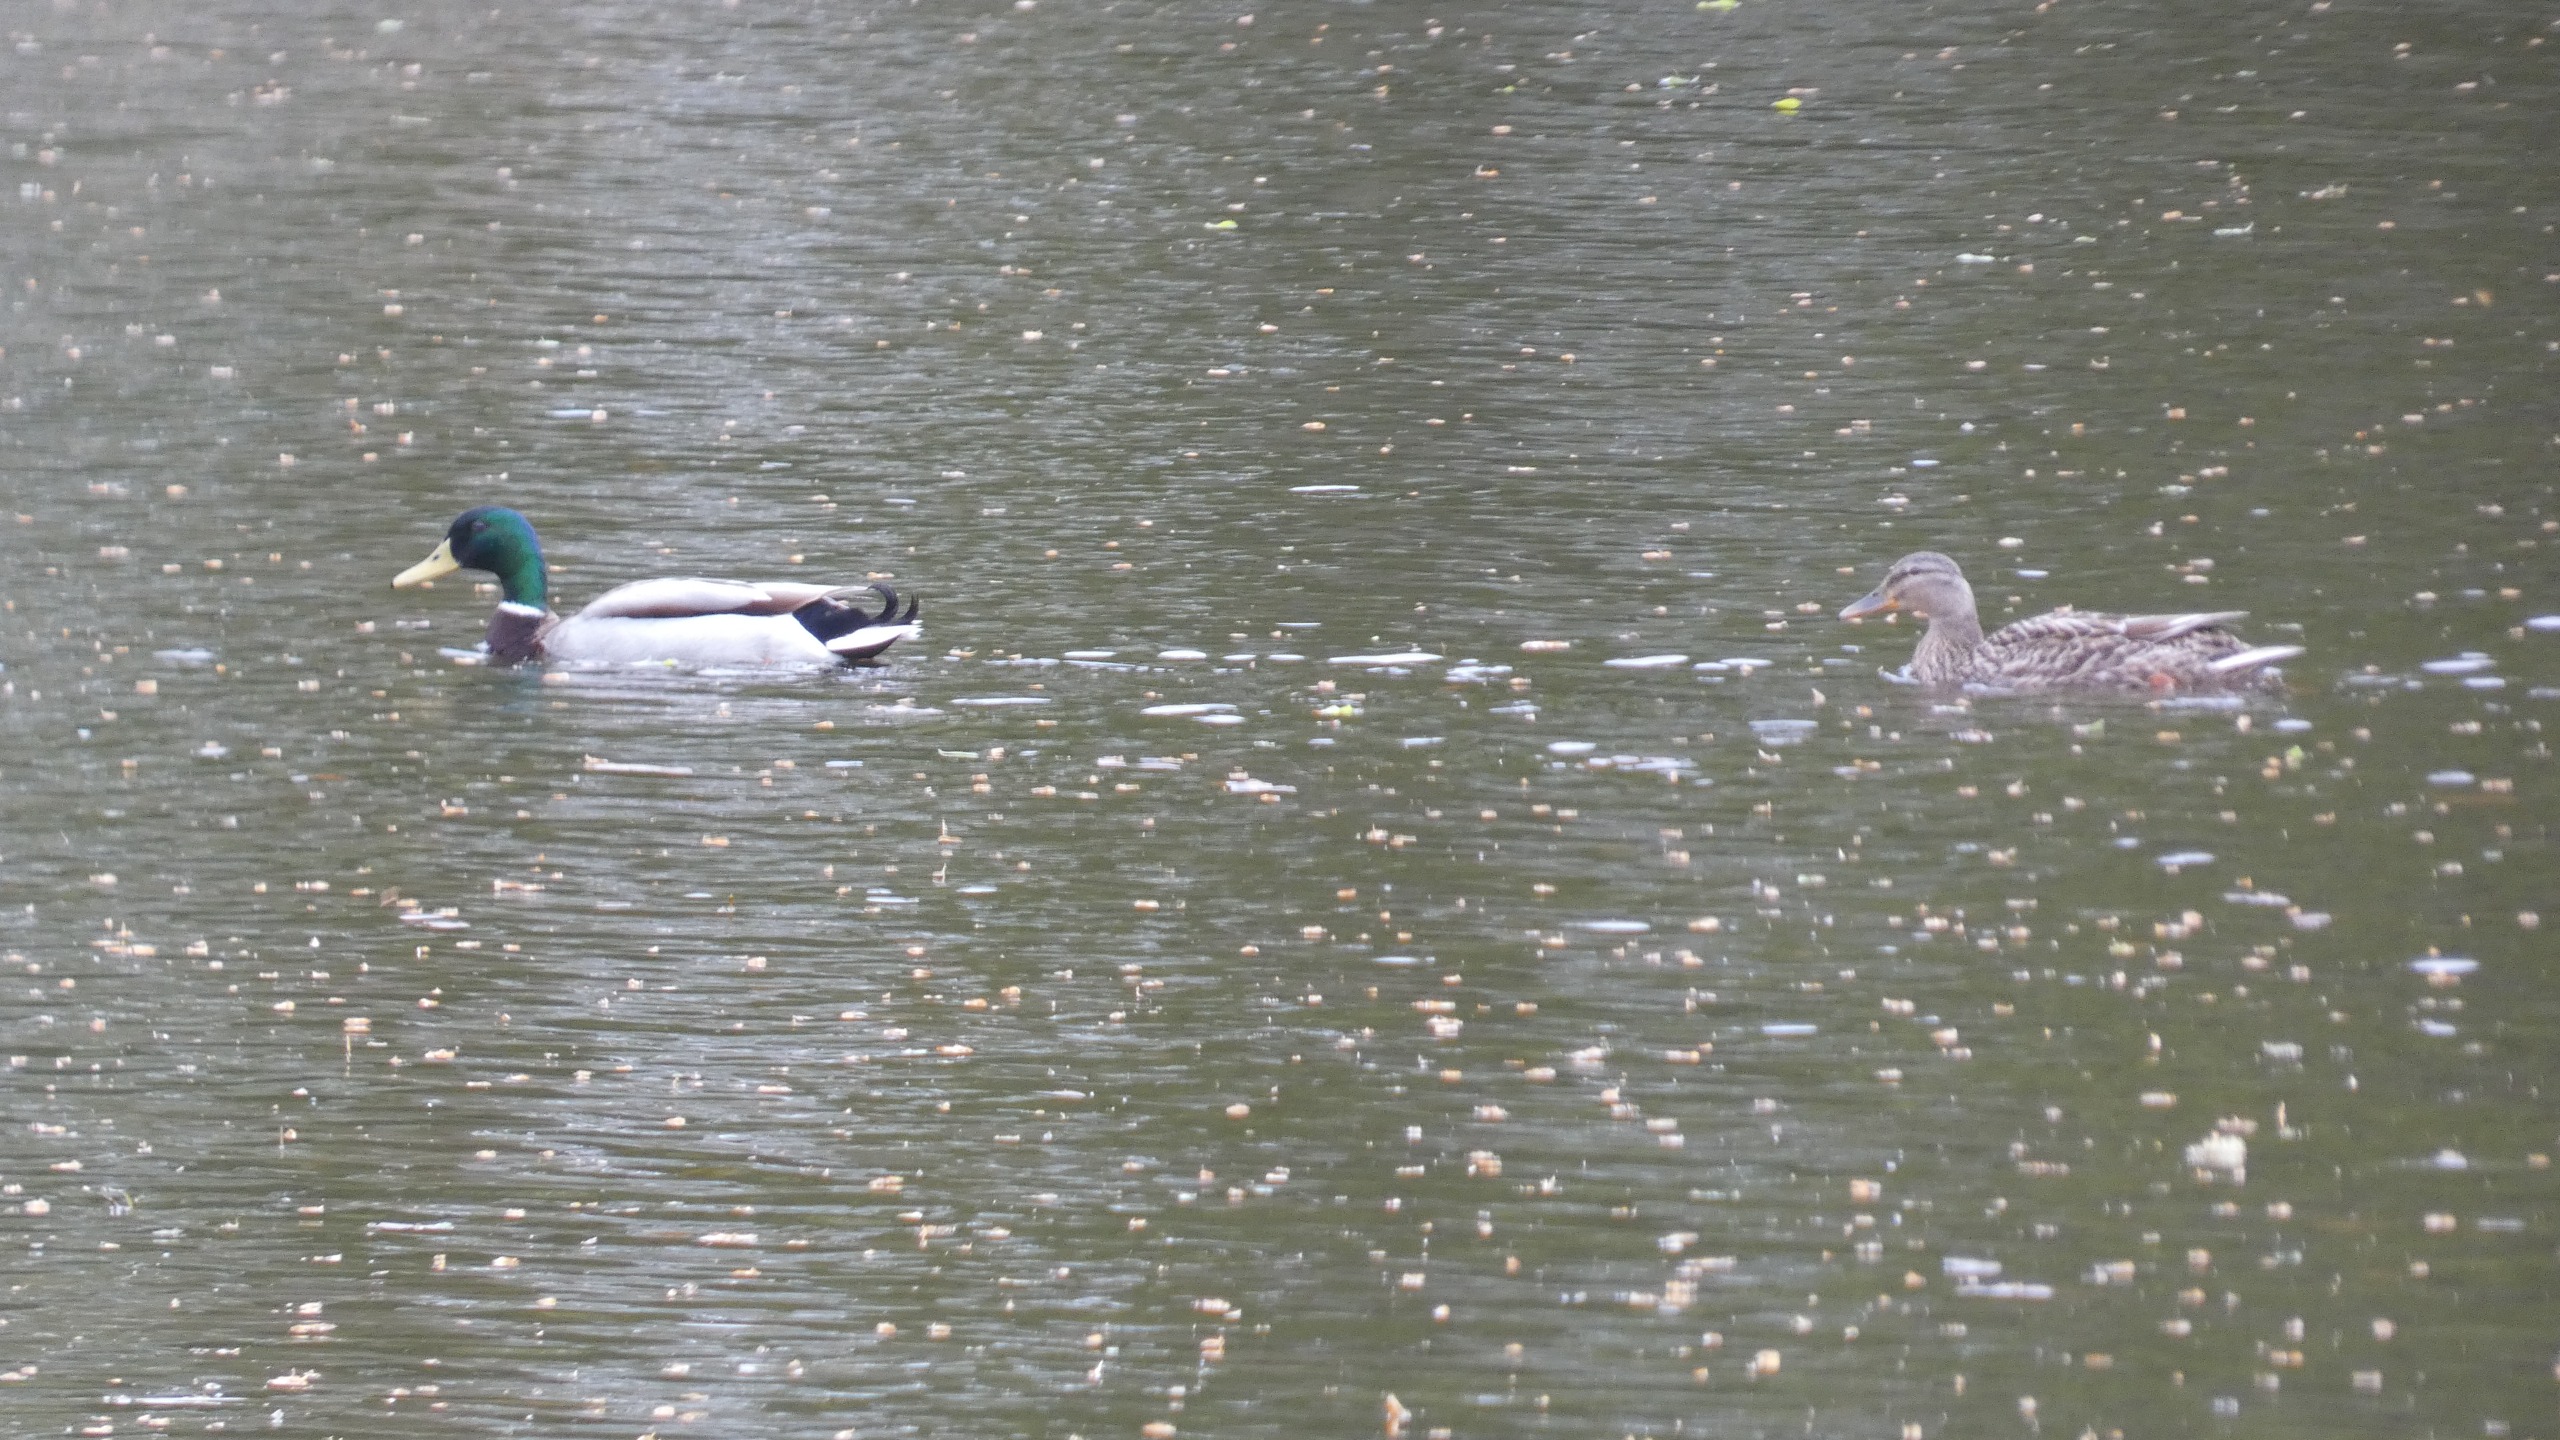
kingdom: Animalia
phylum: Chordata
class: Aves
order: Anseriformes
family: Anatidae
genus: Anas
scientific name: Anas platyrhynchos
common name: Gråand
